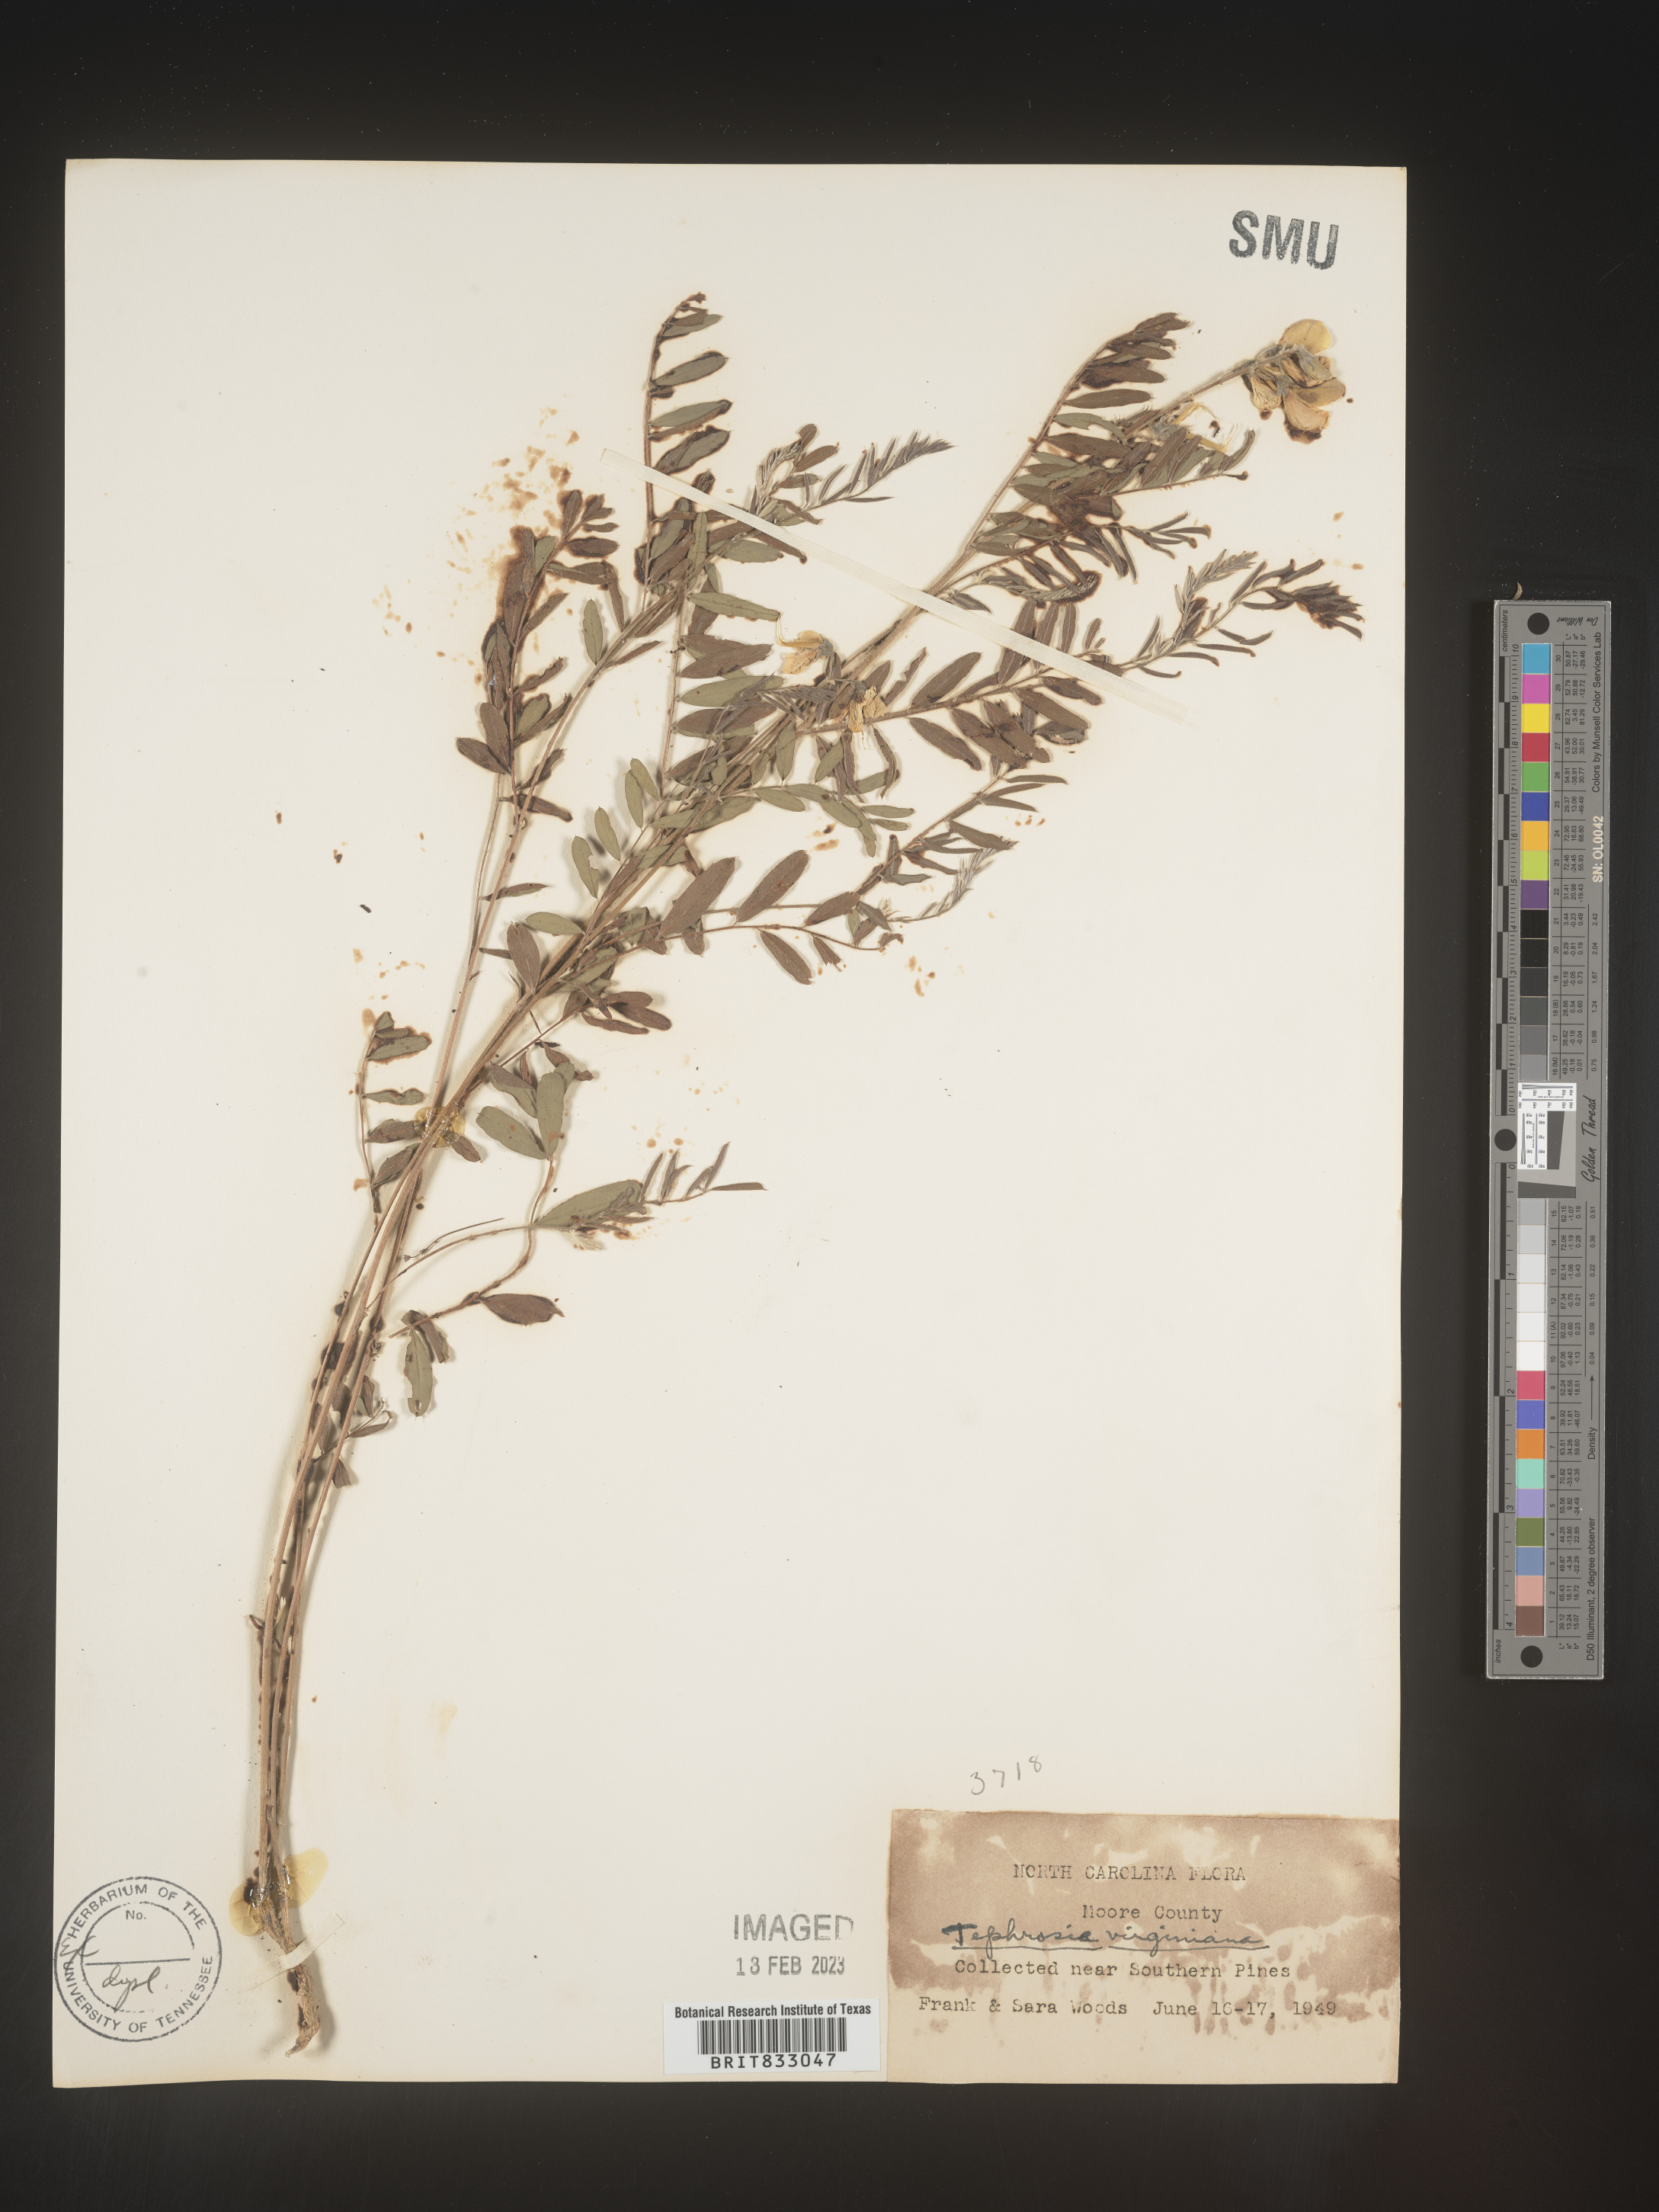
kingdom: Plantae
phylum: Tracheophyta
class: Magnoliopsida
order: Fabales
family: Fabaceae
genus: Tephrosia
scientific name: Tephrosia virginiana
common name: Rabbit-pea
